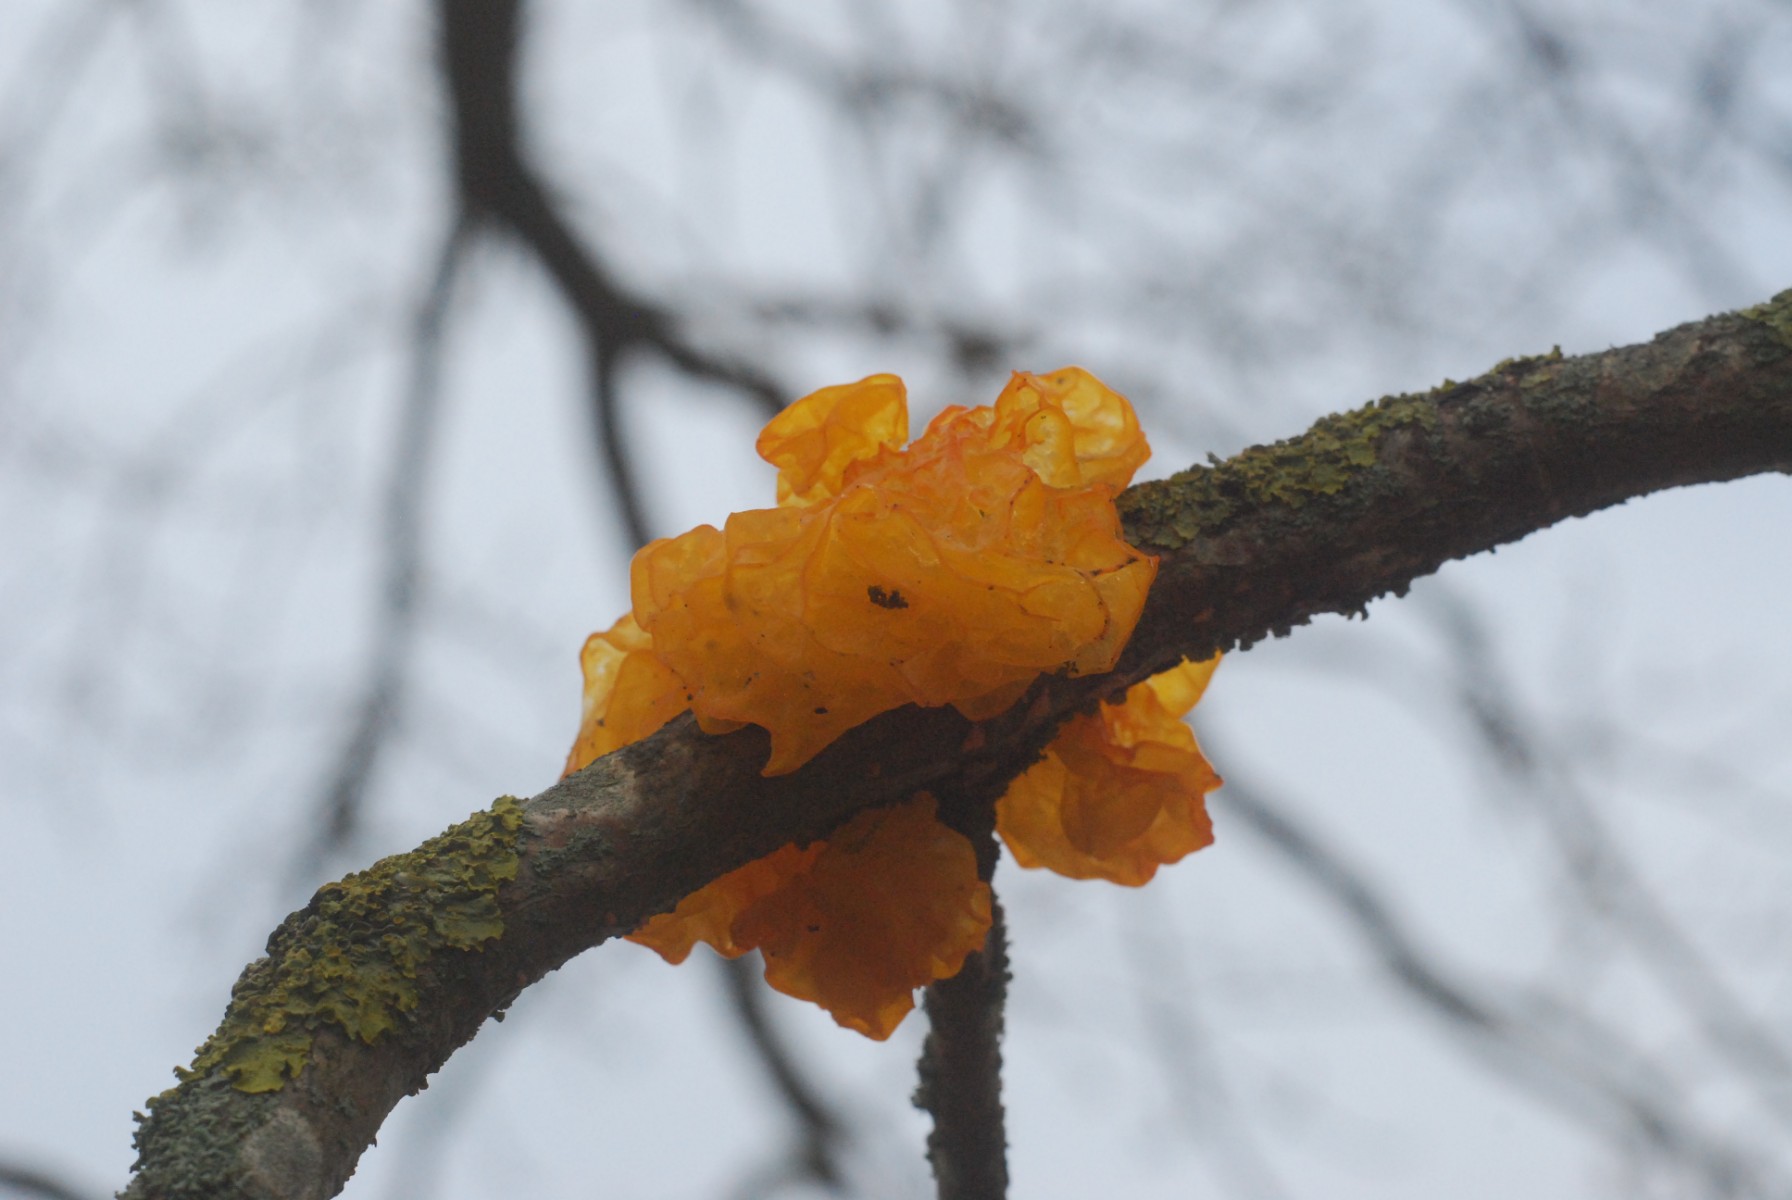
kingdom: Fungi
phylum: Basidiomycota
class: Tremellomycetes
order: Tremellales
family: Tremellaceae
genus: Tremella
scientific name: Tremella mesenterica
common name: gul bævresvamp
